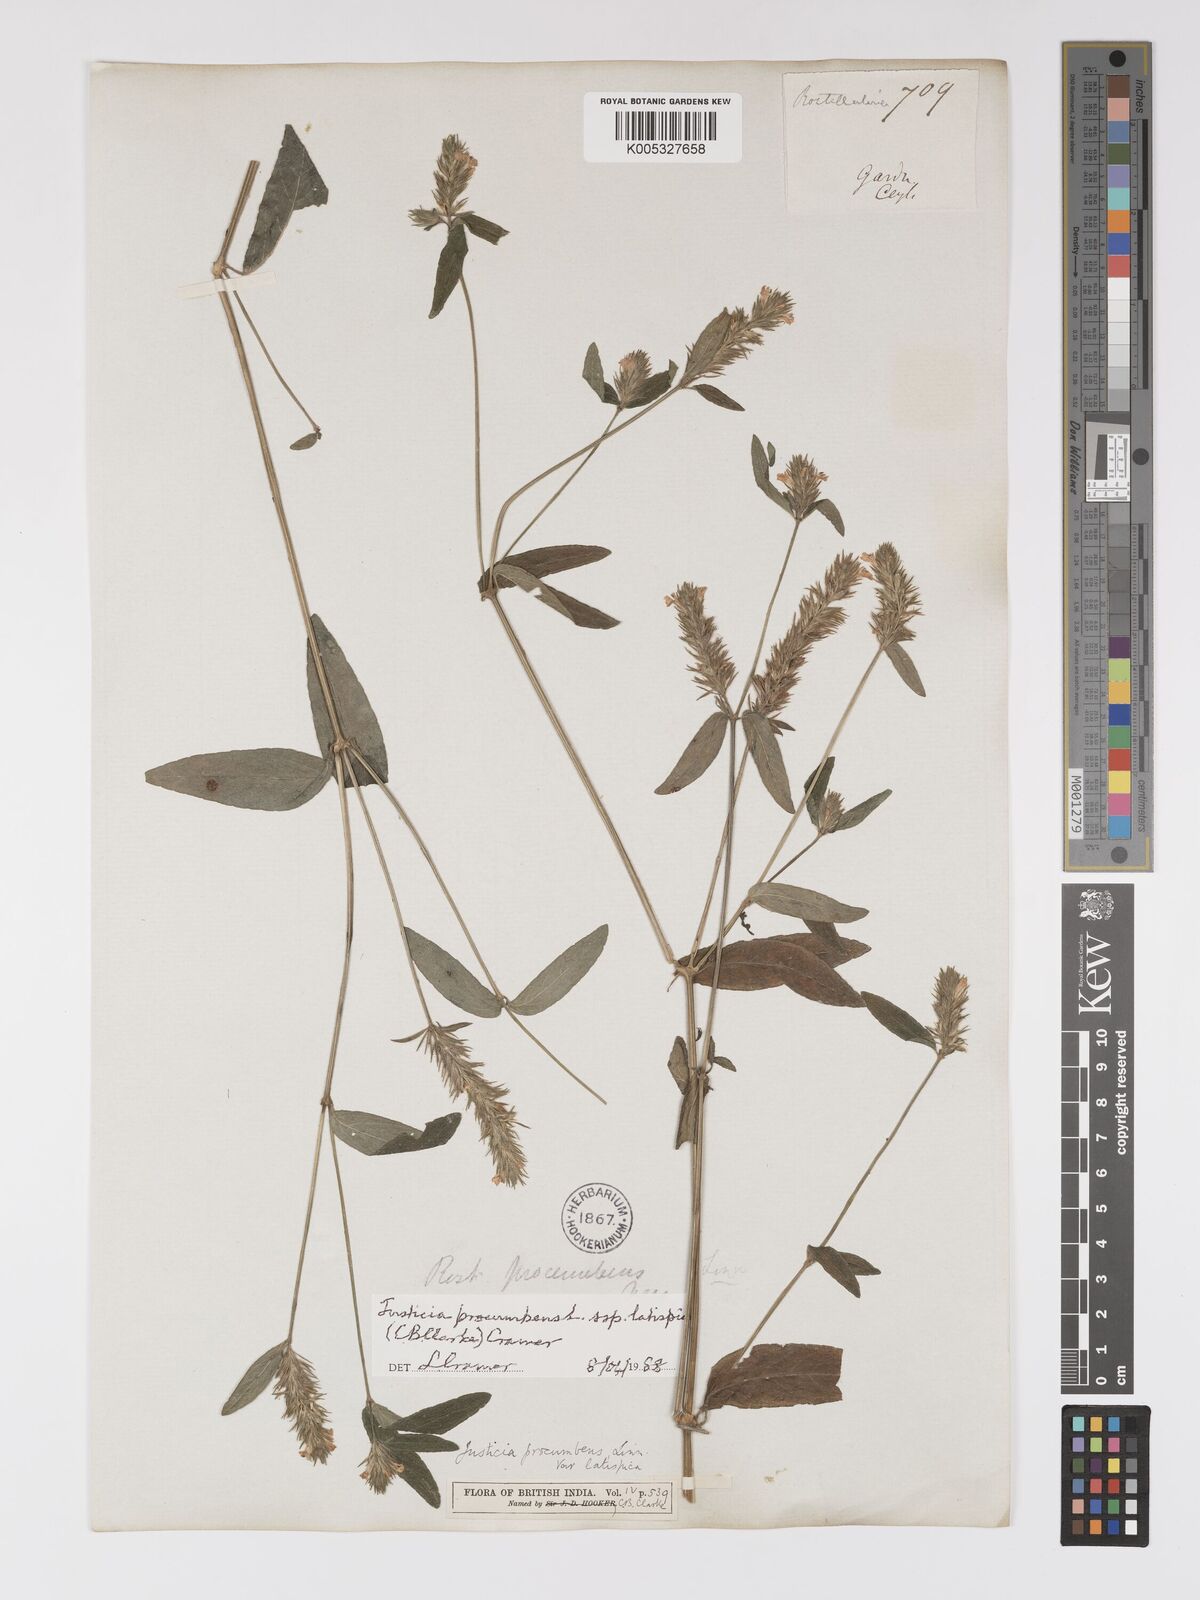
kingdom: Plantae
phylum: Tracheophyta
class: Magnoliopsida
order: Lamiales
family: Acanthaceae
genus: Rostellularia
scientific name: Rostellularia latispica
